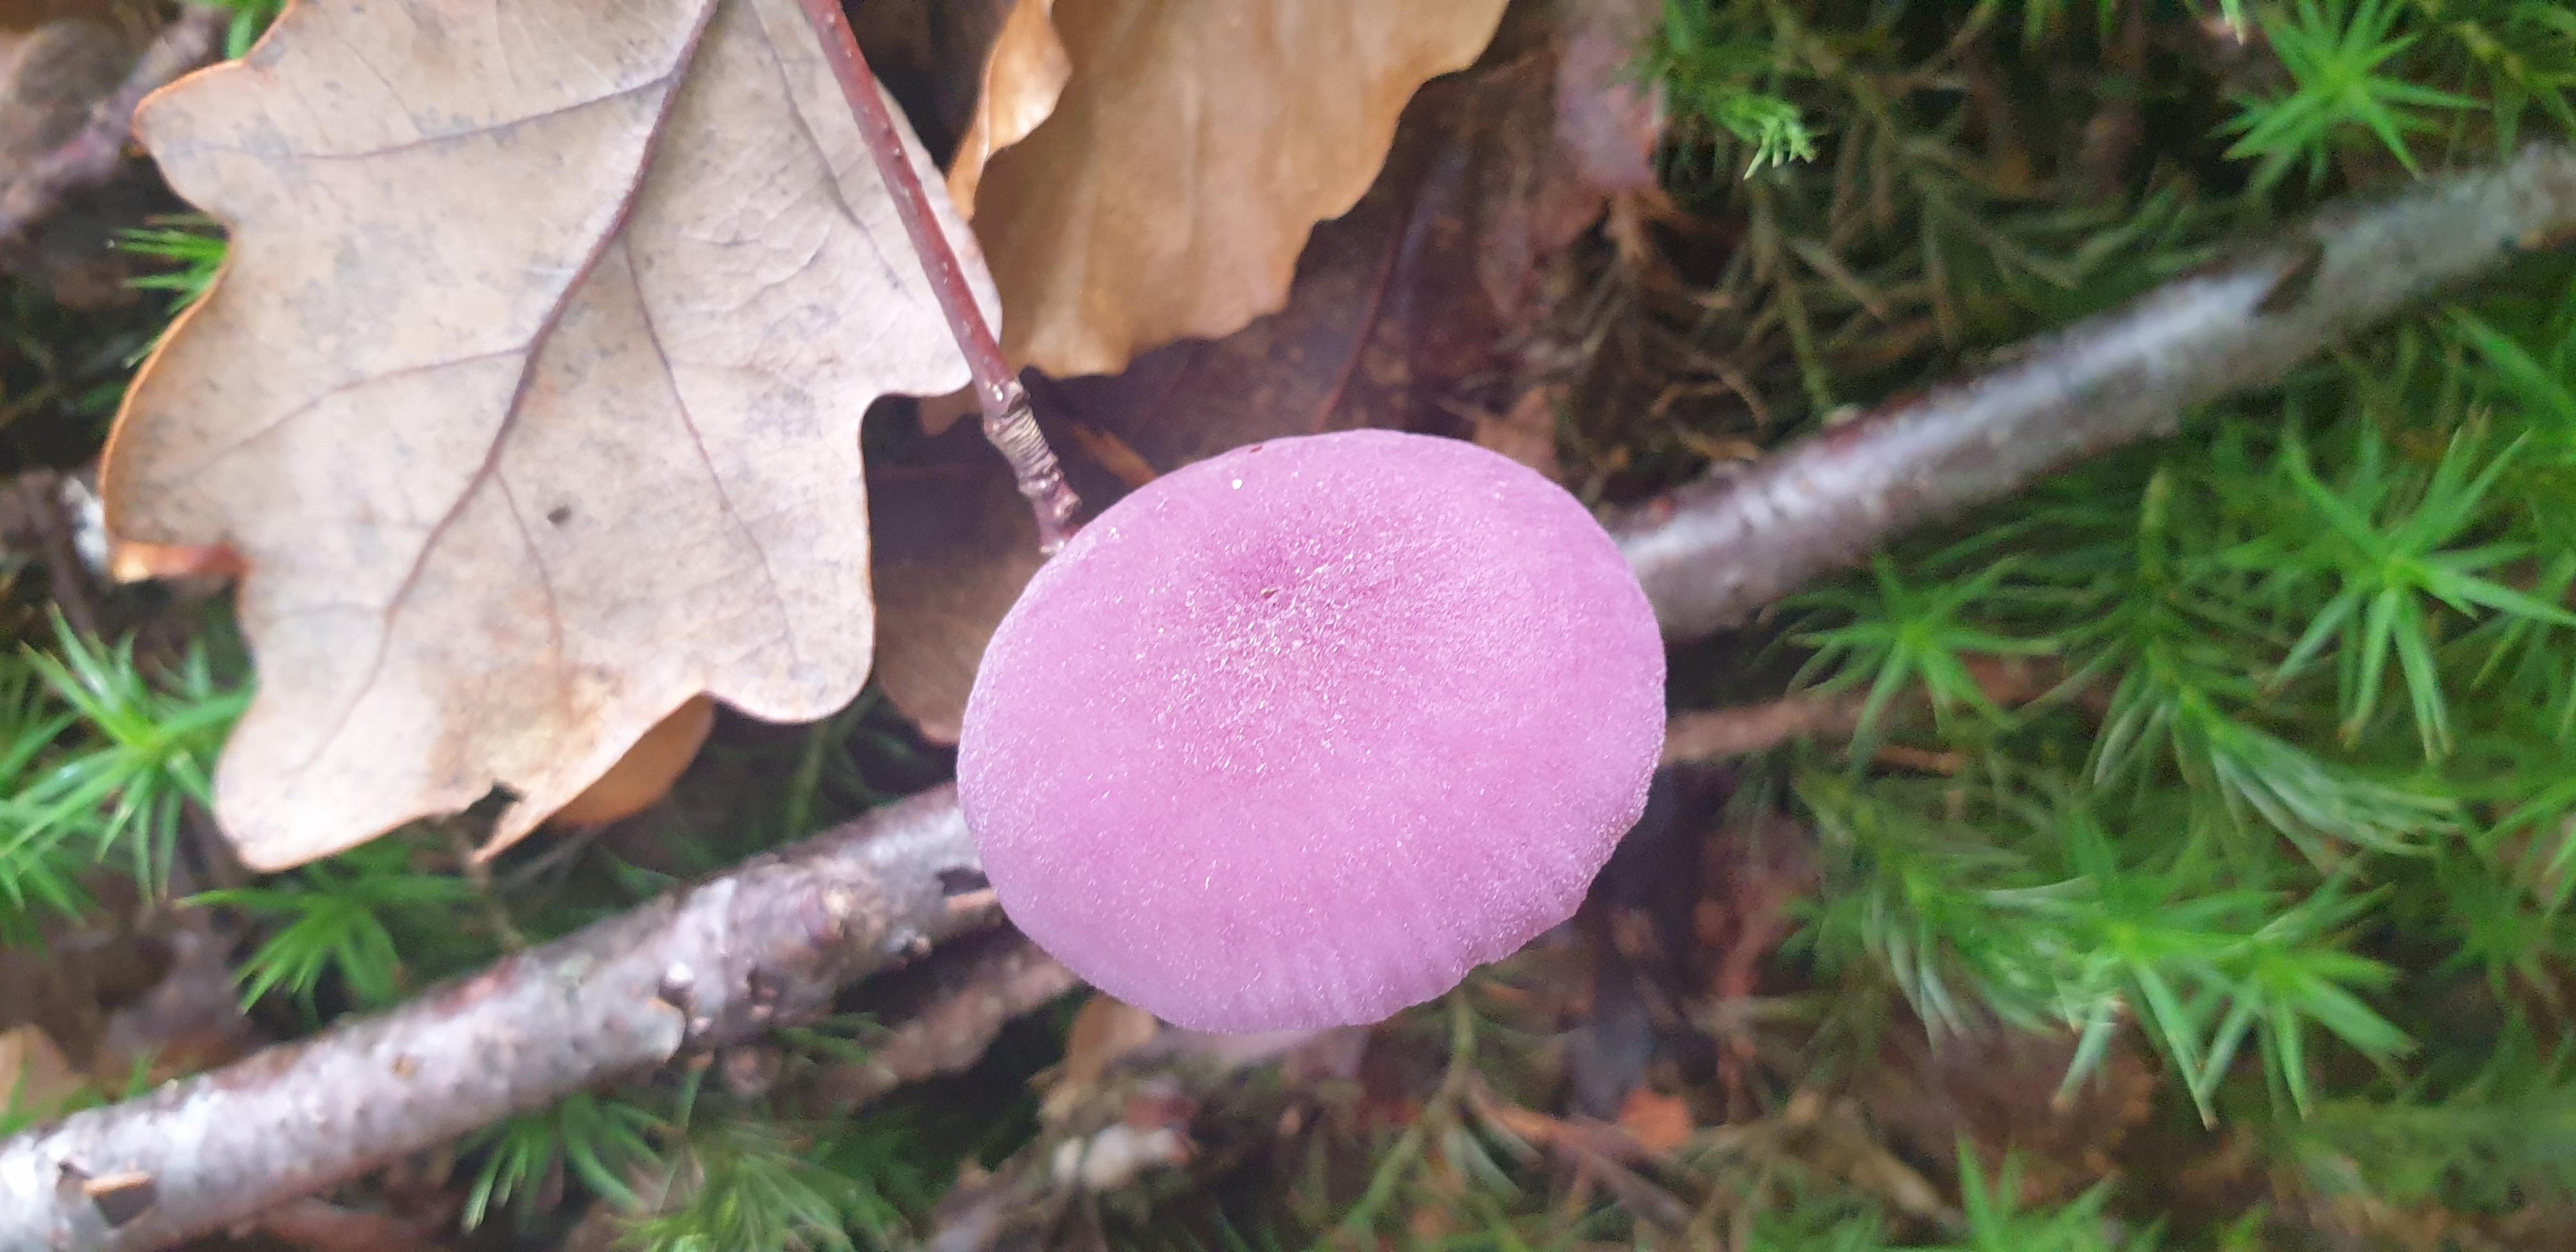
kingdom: Fungi
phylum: Basidiomycota
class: Agaricomycetes
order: Agaricales
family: Hydnangiaceae
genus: Laccaria
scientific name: Laccaria amethystina
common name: violet ametysthat
